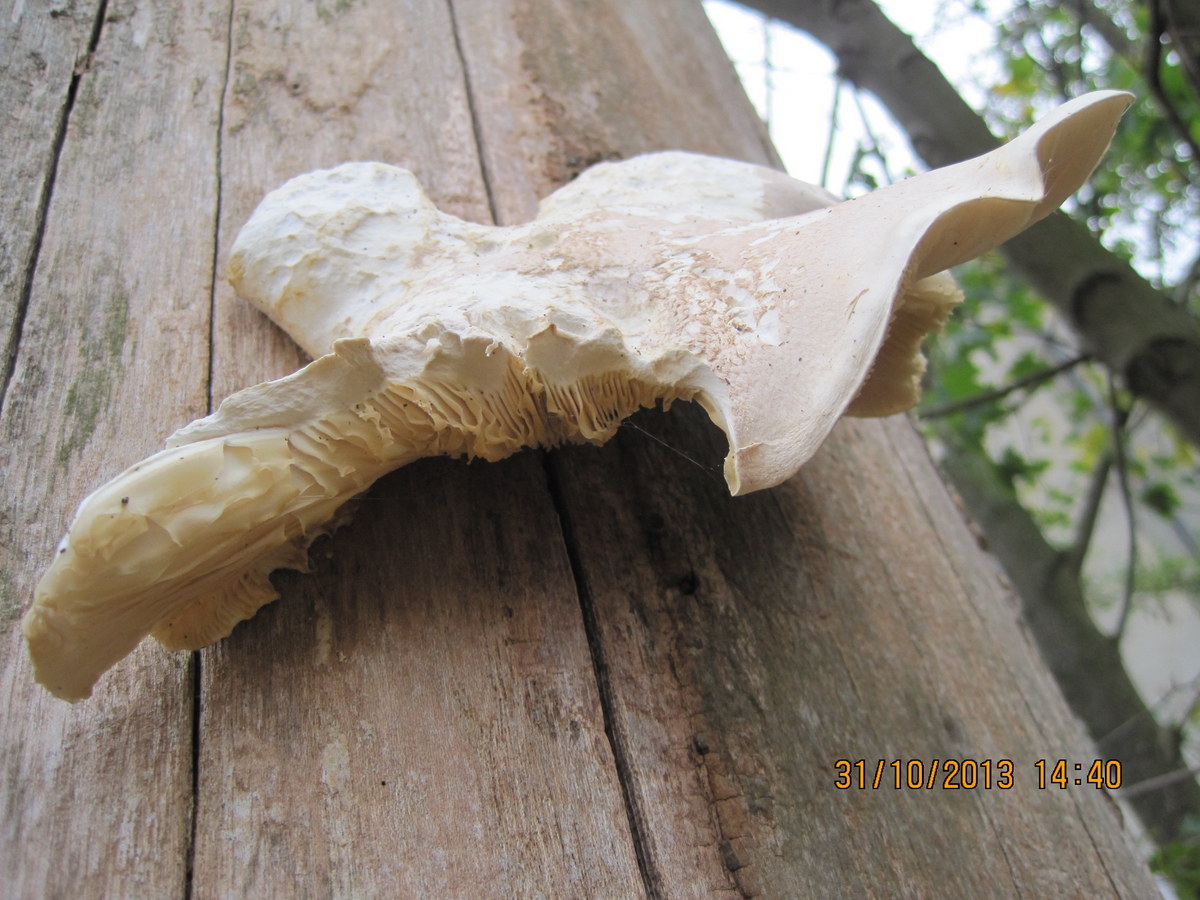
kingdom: Fungi
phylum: Basidiomycota
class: Agaricomycetes
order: Agaricales
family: Pleurotaceae
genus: Pleurotus
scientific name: Pleurotus dryinus
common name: korkagtig østershat
